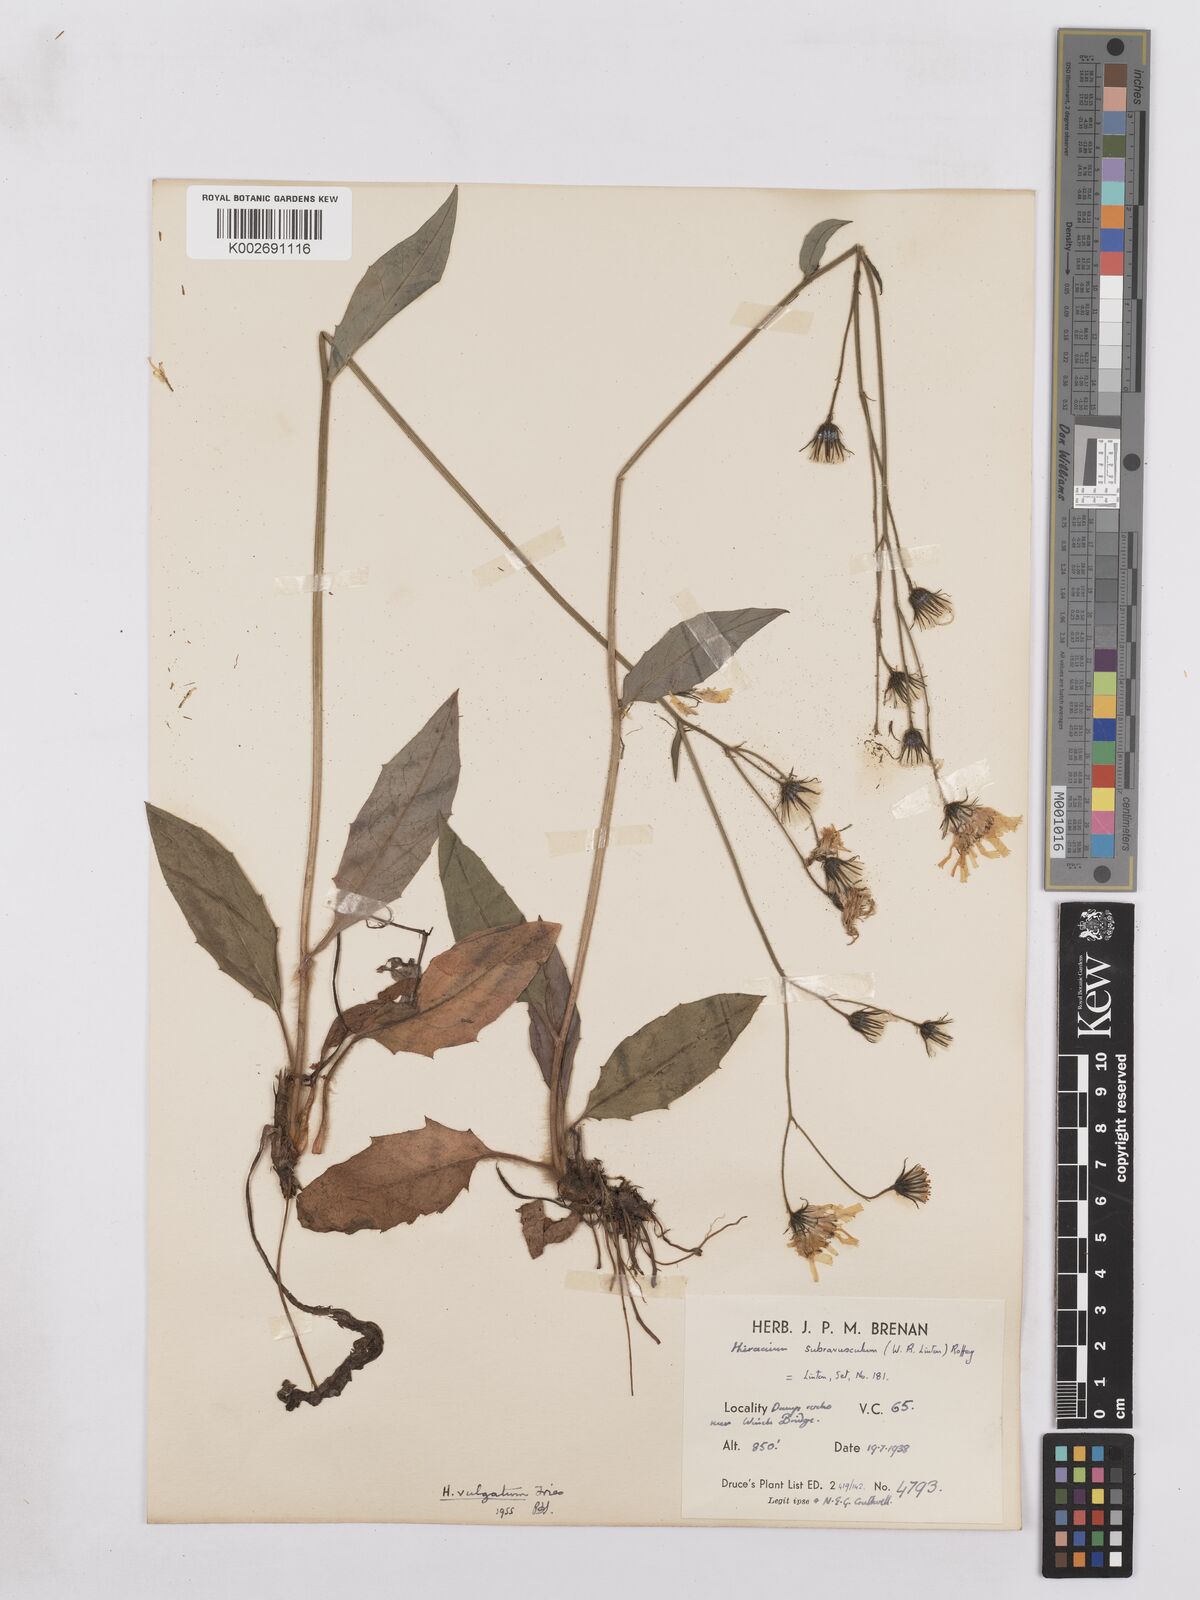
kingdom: Plantae
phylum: Tracheophyta
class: Magnoliopsida
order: Asterales
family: Asteraceae
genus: Hieracium
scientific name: Hieracium lachenalii
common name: Common hawkweed
